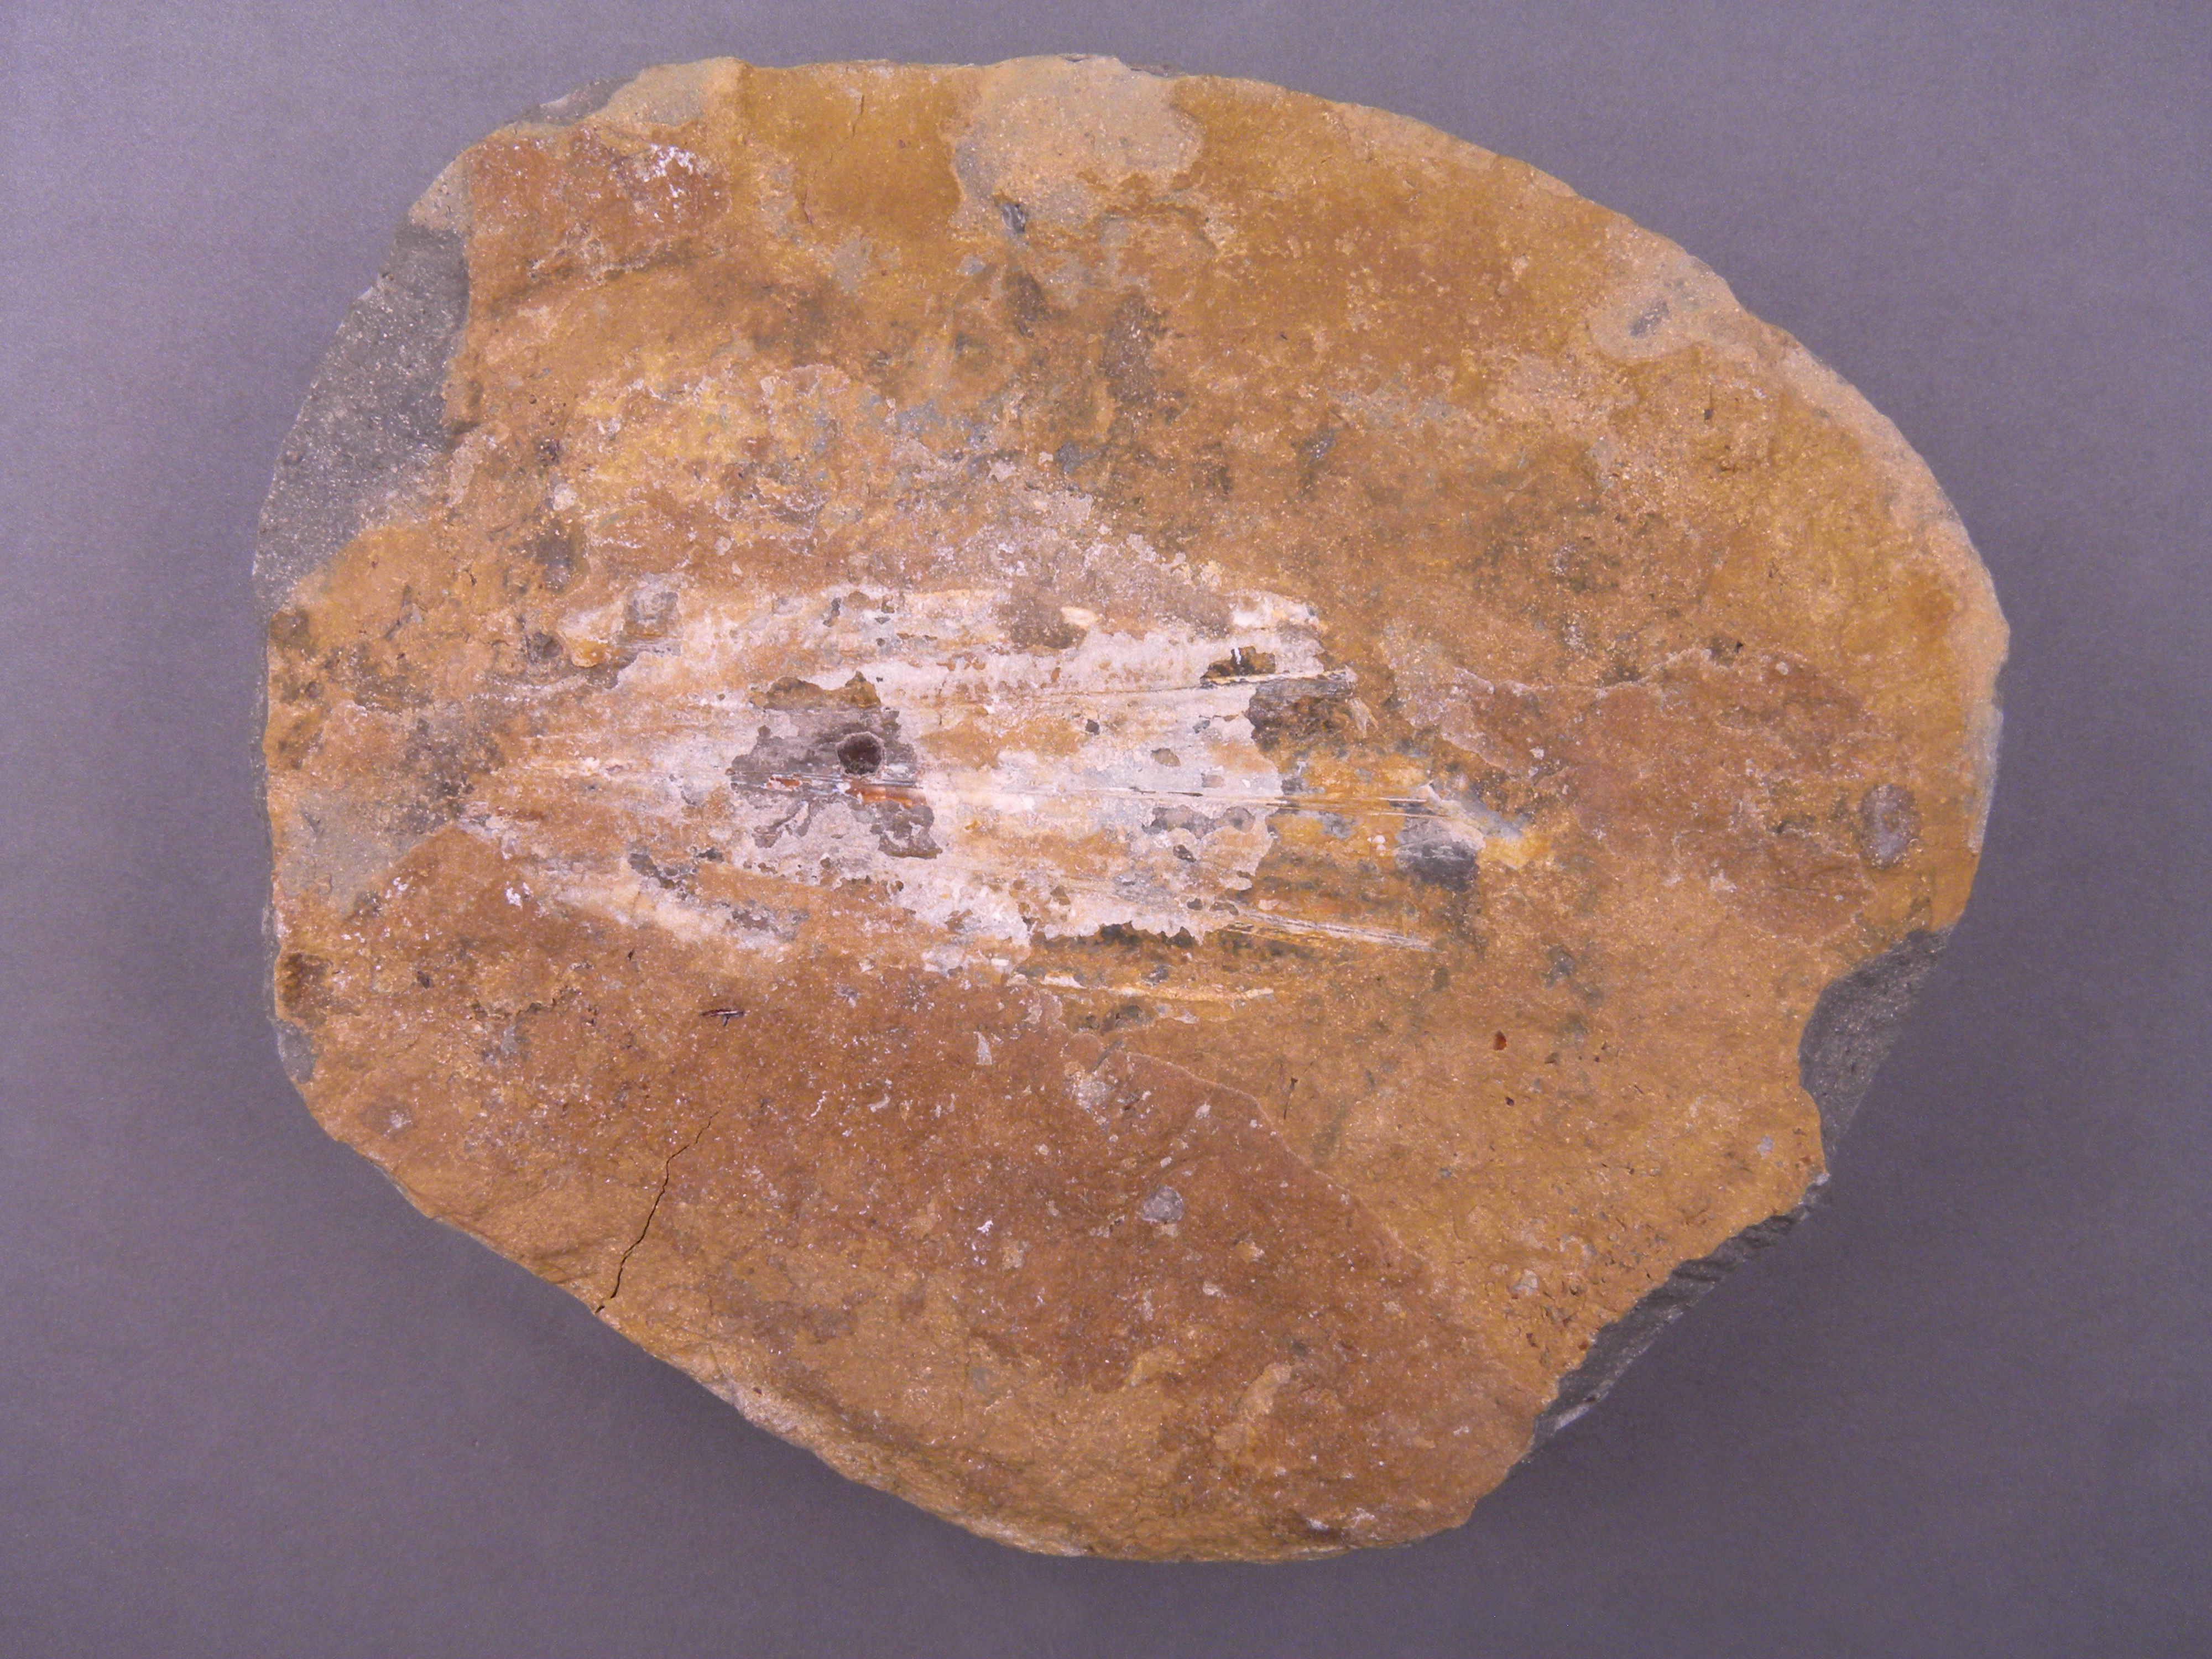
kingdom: Animalia
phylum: Mollusca
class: Cephalopoda
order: Vampyromorpha
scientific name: Vampyromorpha
